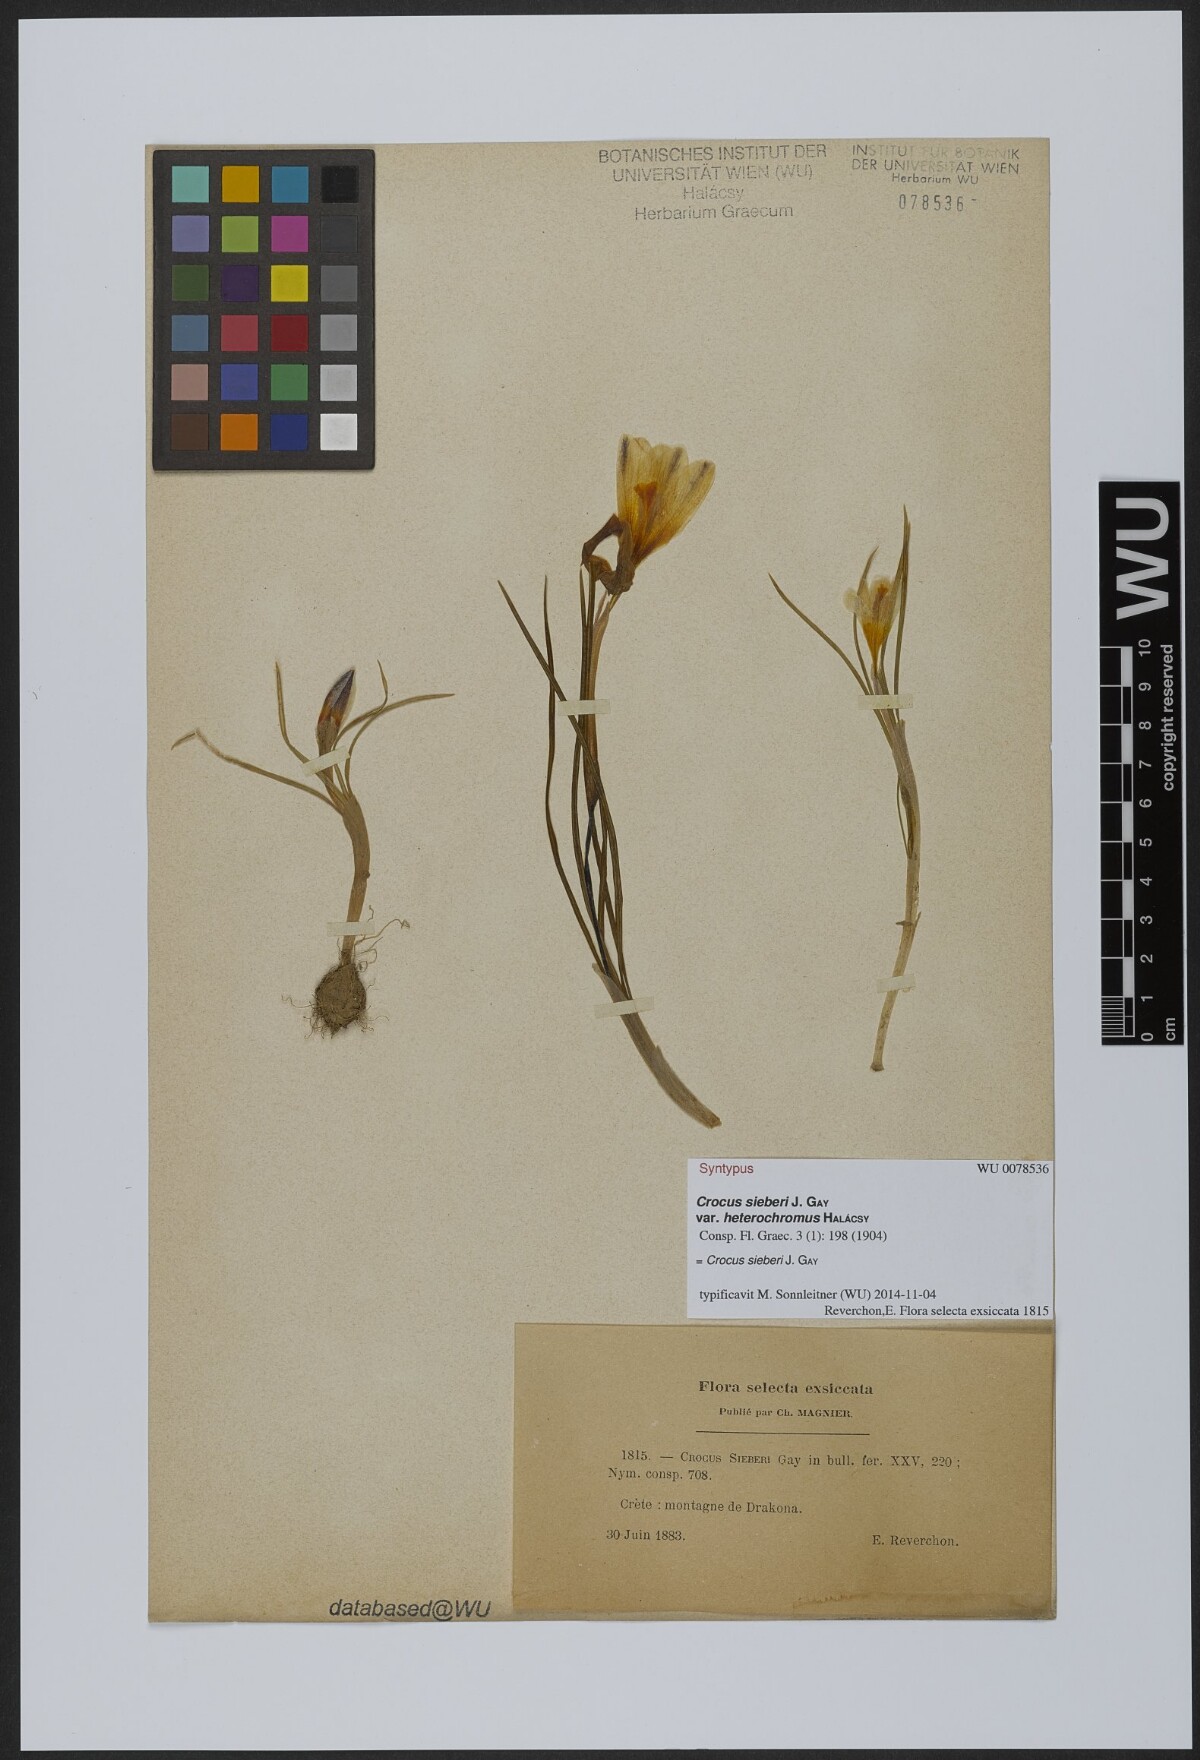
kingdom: Plantae
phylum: Tracheophyta
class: Liliopsida
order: Asparagales
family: Iridaceae
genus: Crocus
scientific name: Crocus sieberi
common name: Sieber's crocus
